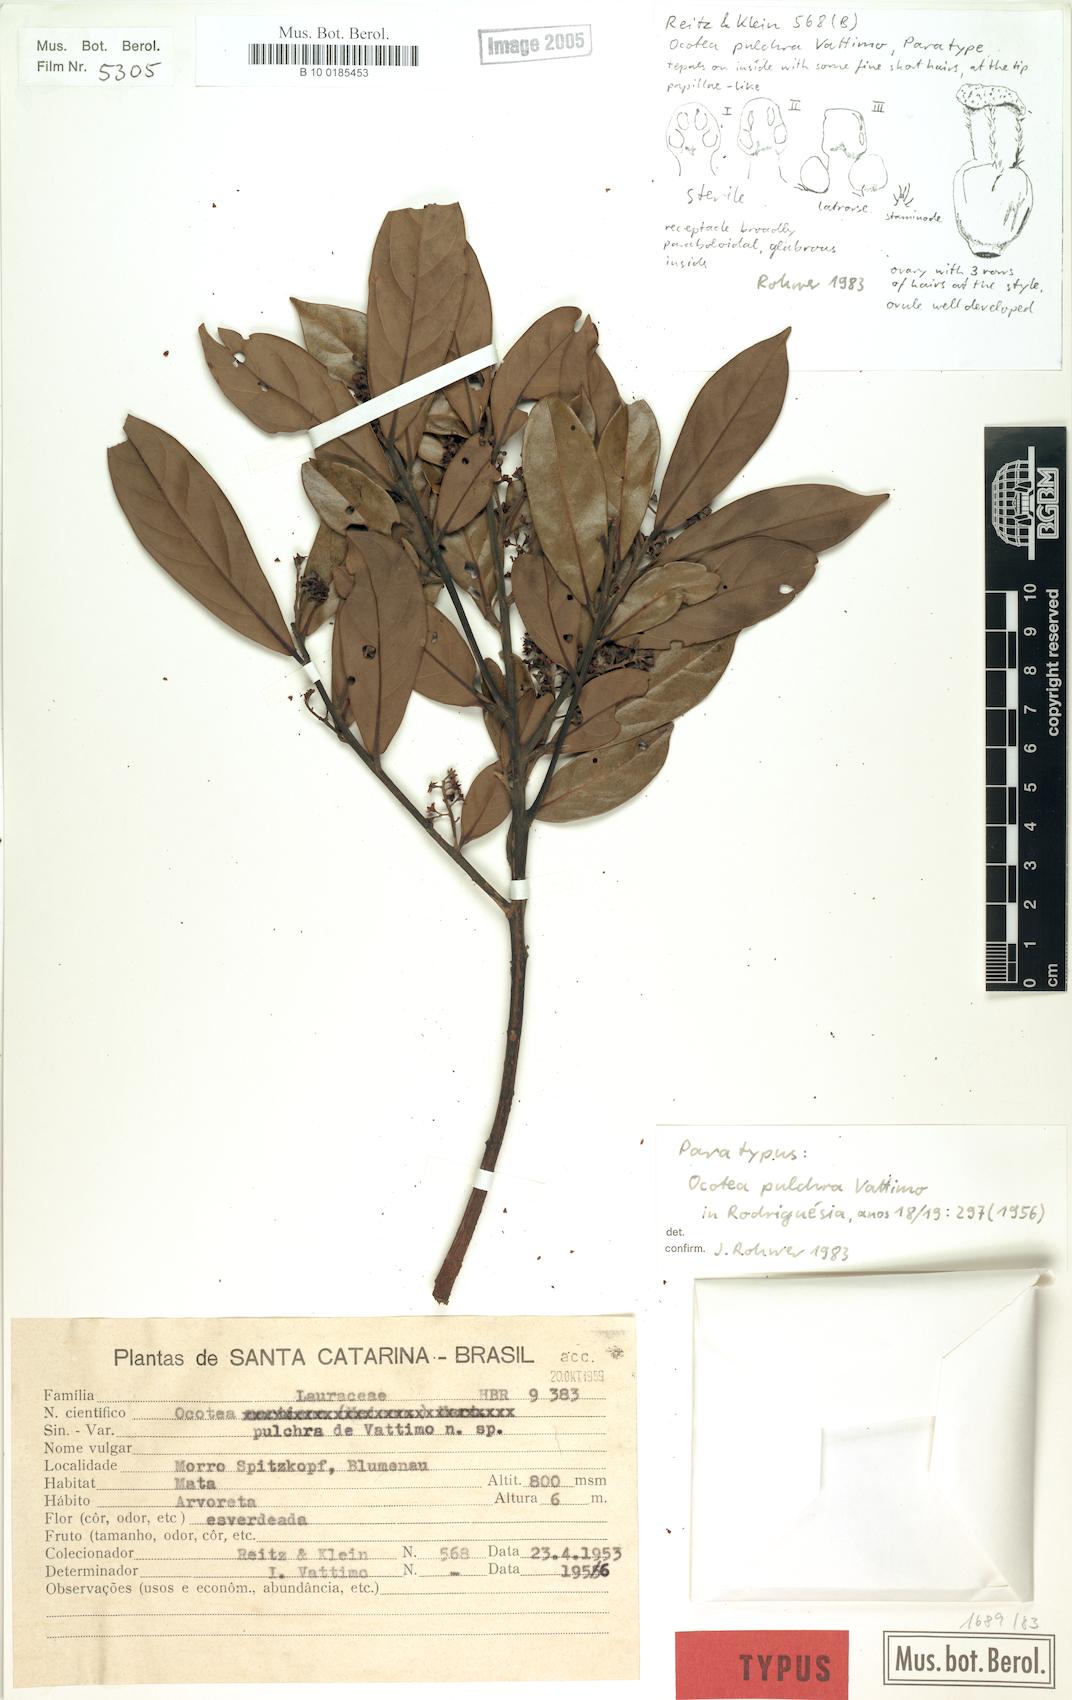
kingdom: Plantae
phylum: Tracheophyta
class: Magnoliopsida
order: Laurales
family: Lauraceae
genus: Ocotea
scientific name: Ocotea lancifolia
